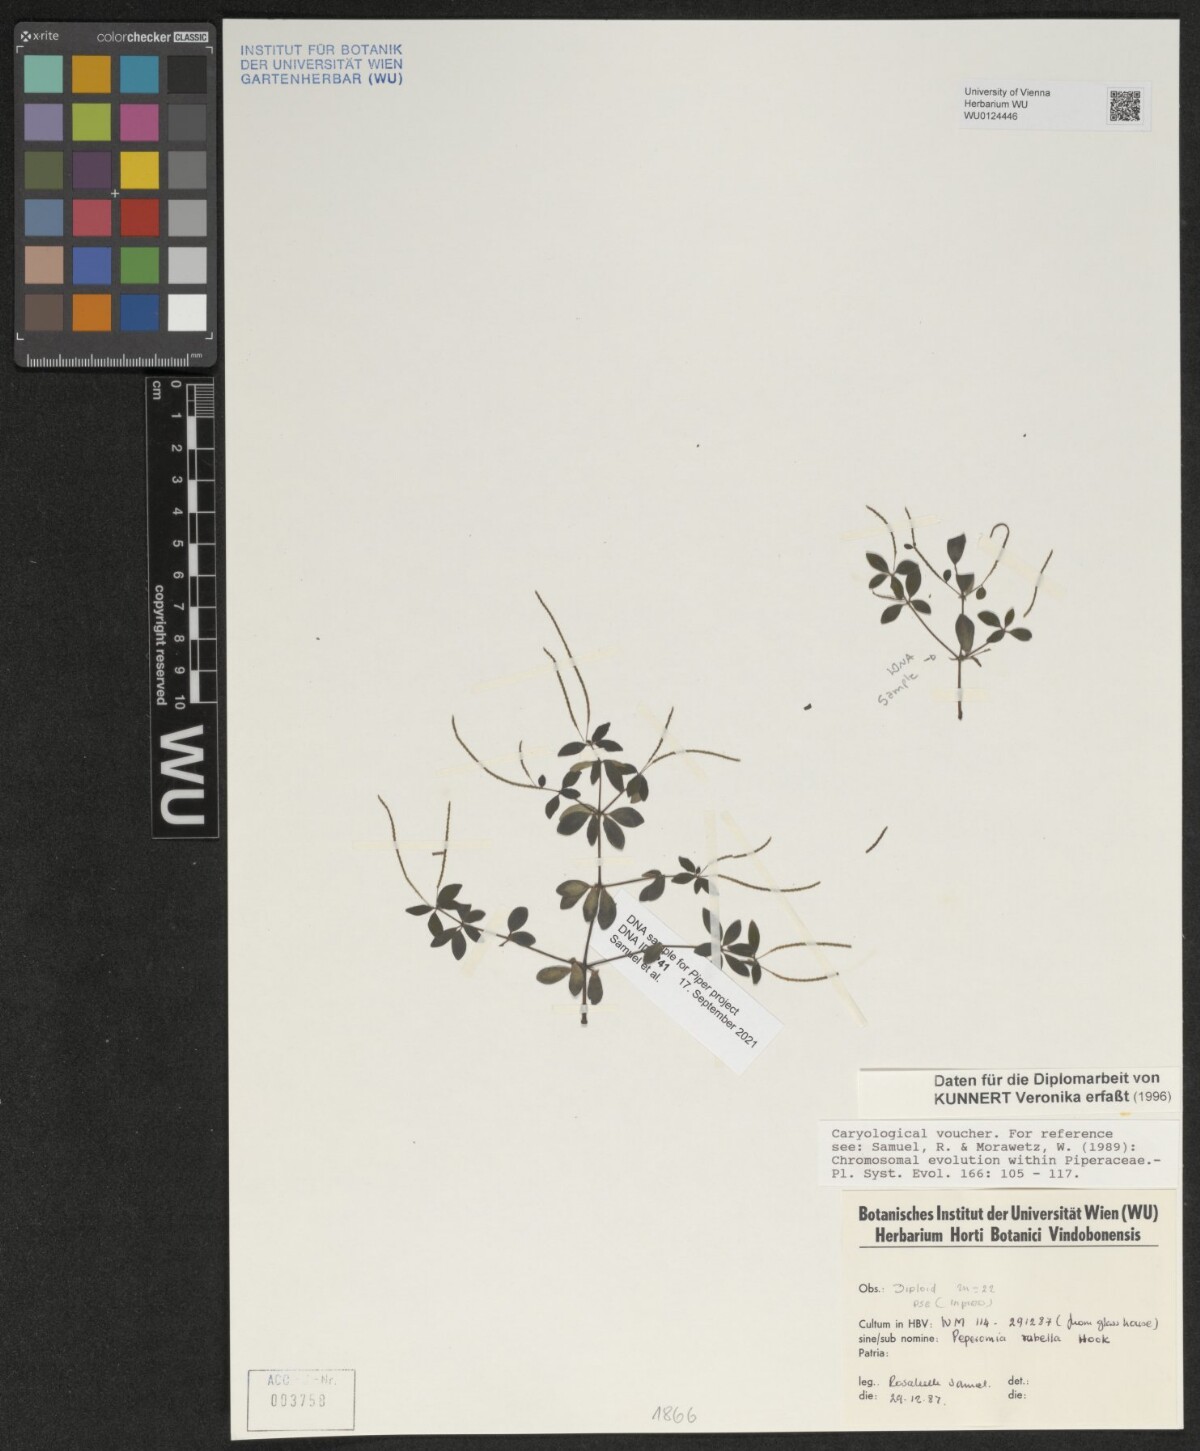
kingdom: Plantae
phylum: Tracheophyta
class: Magnoliopsida
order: Piperales
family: Piperaceae
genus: Peperomia
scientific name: Peperomia verticillata
